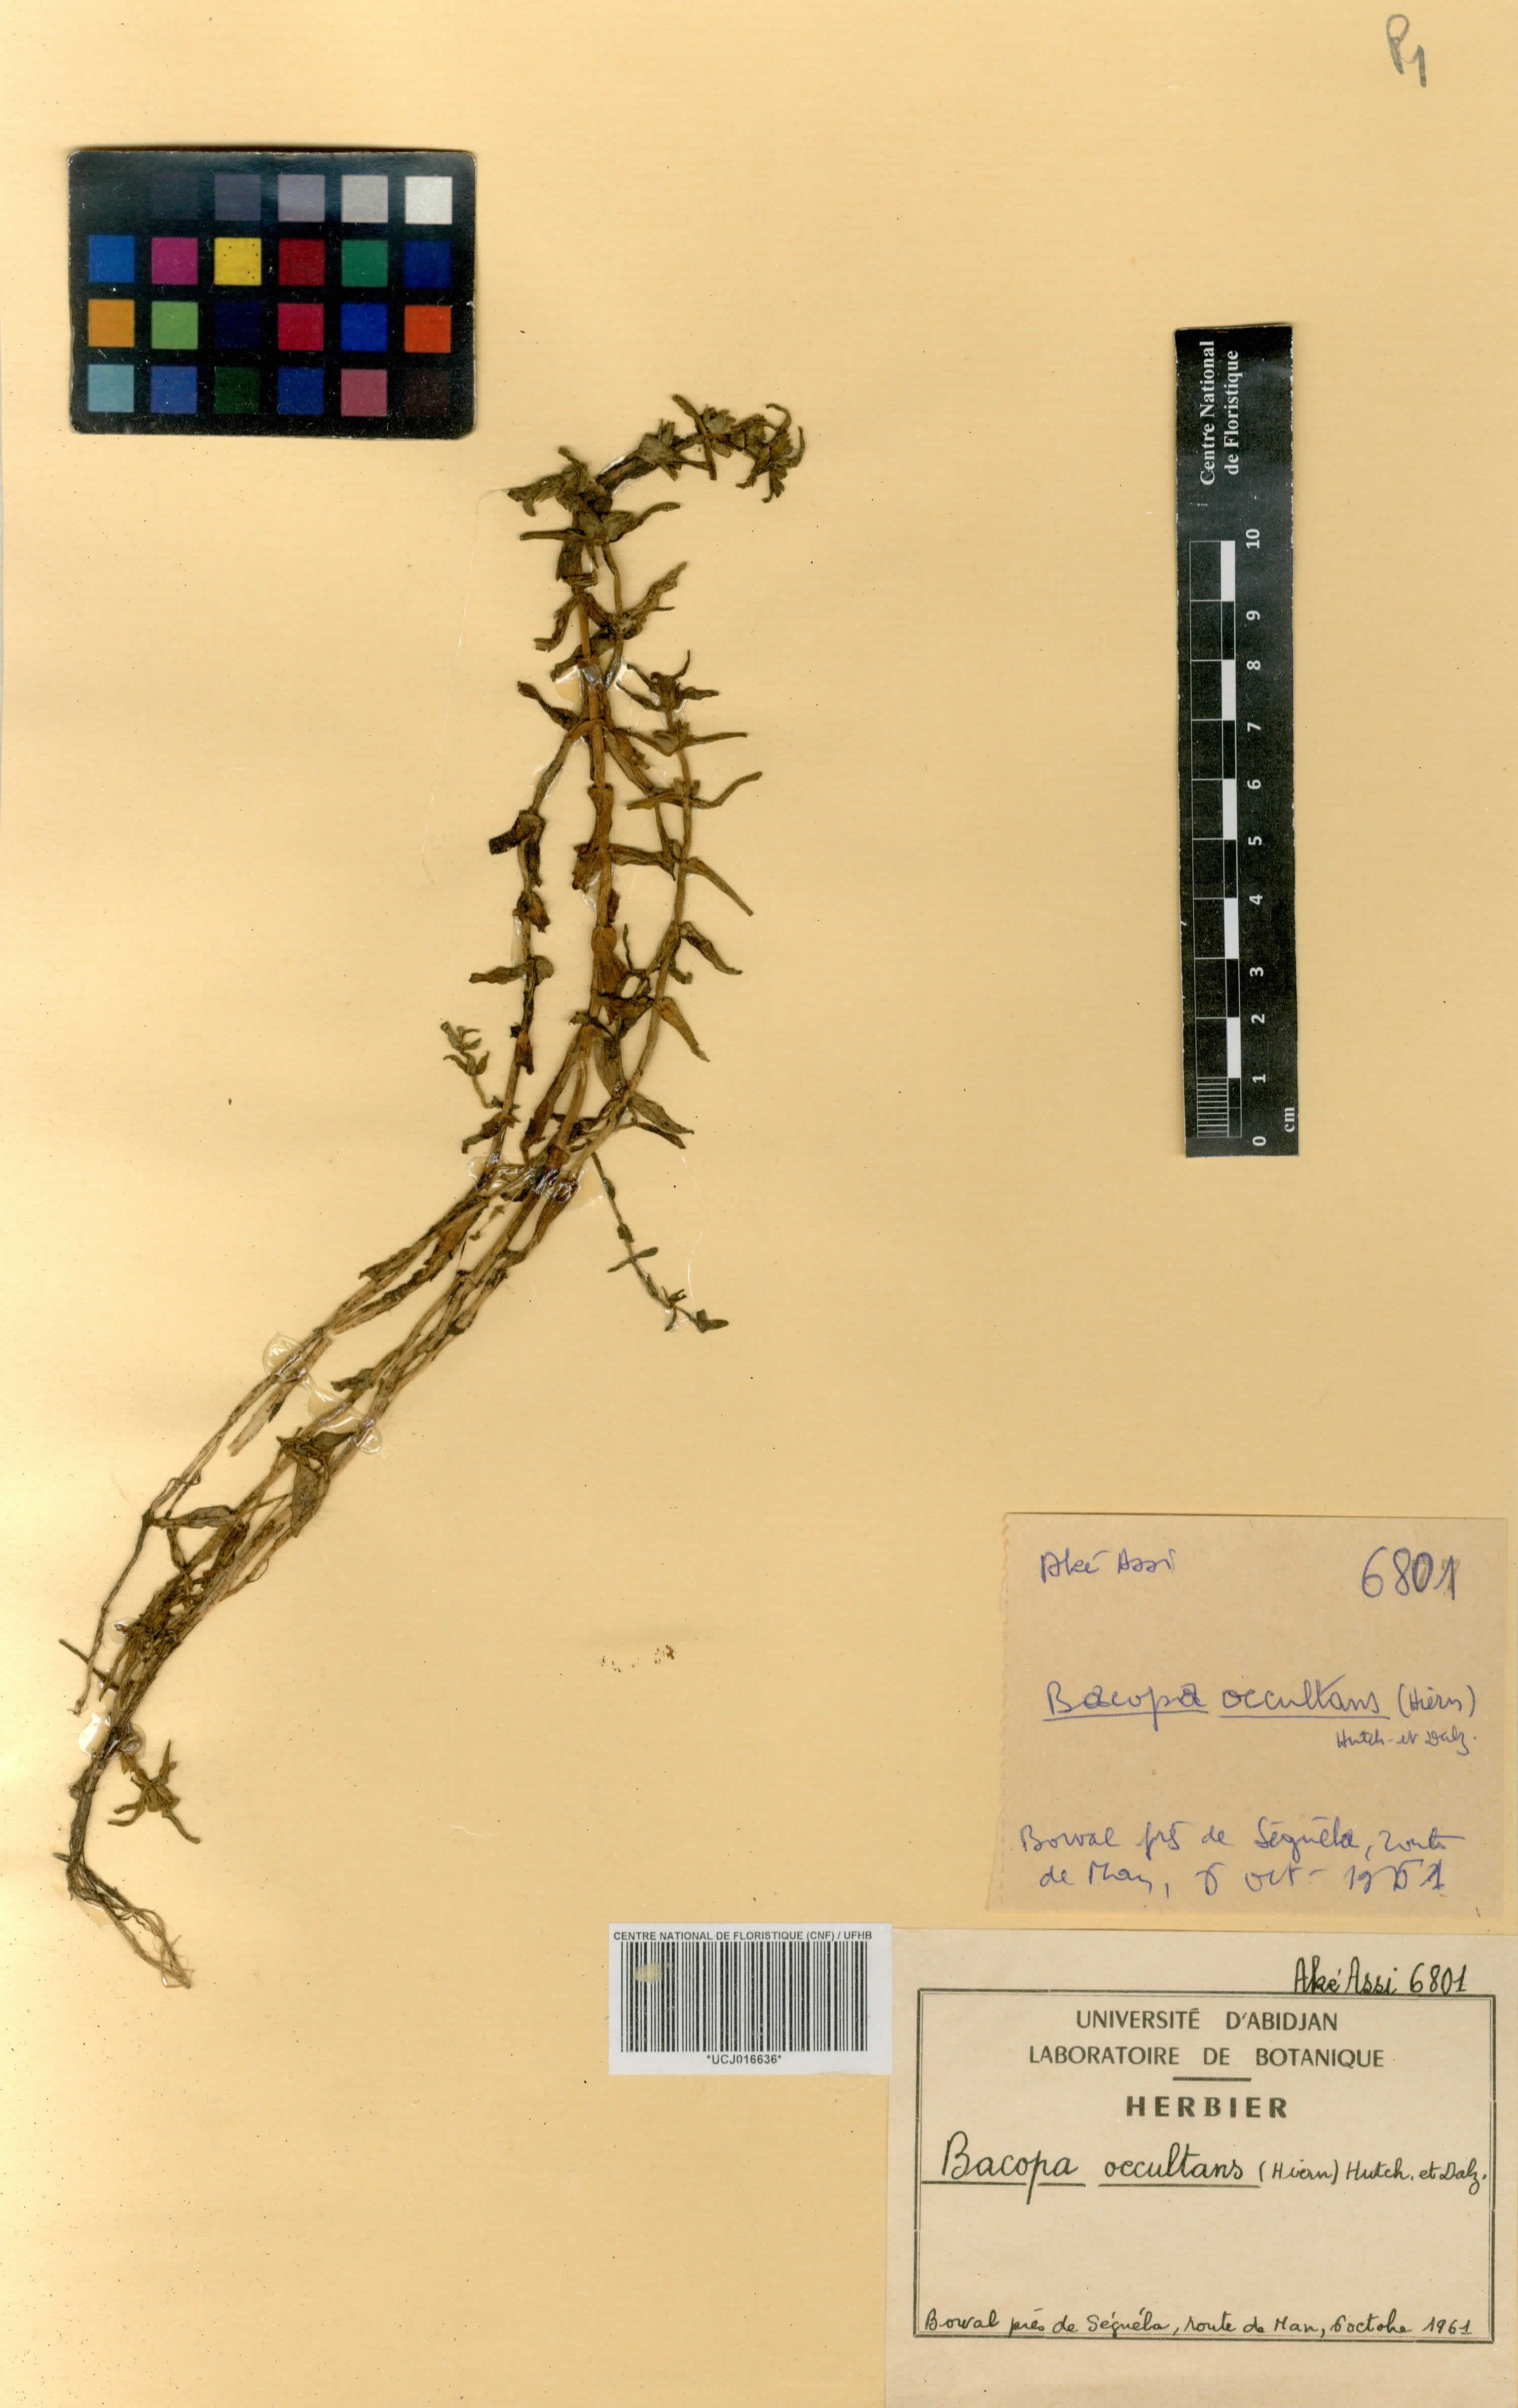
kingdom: Plantae
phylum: Tracheophyta
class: Magnoliopsida
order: Lamiales
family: Plantaginaceae
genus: Bacopa
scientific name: Bacopa occultans
